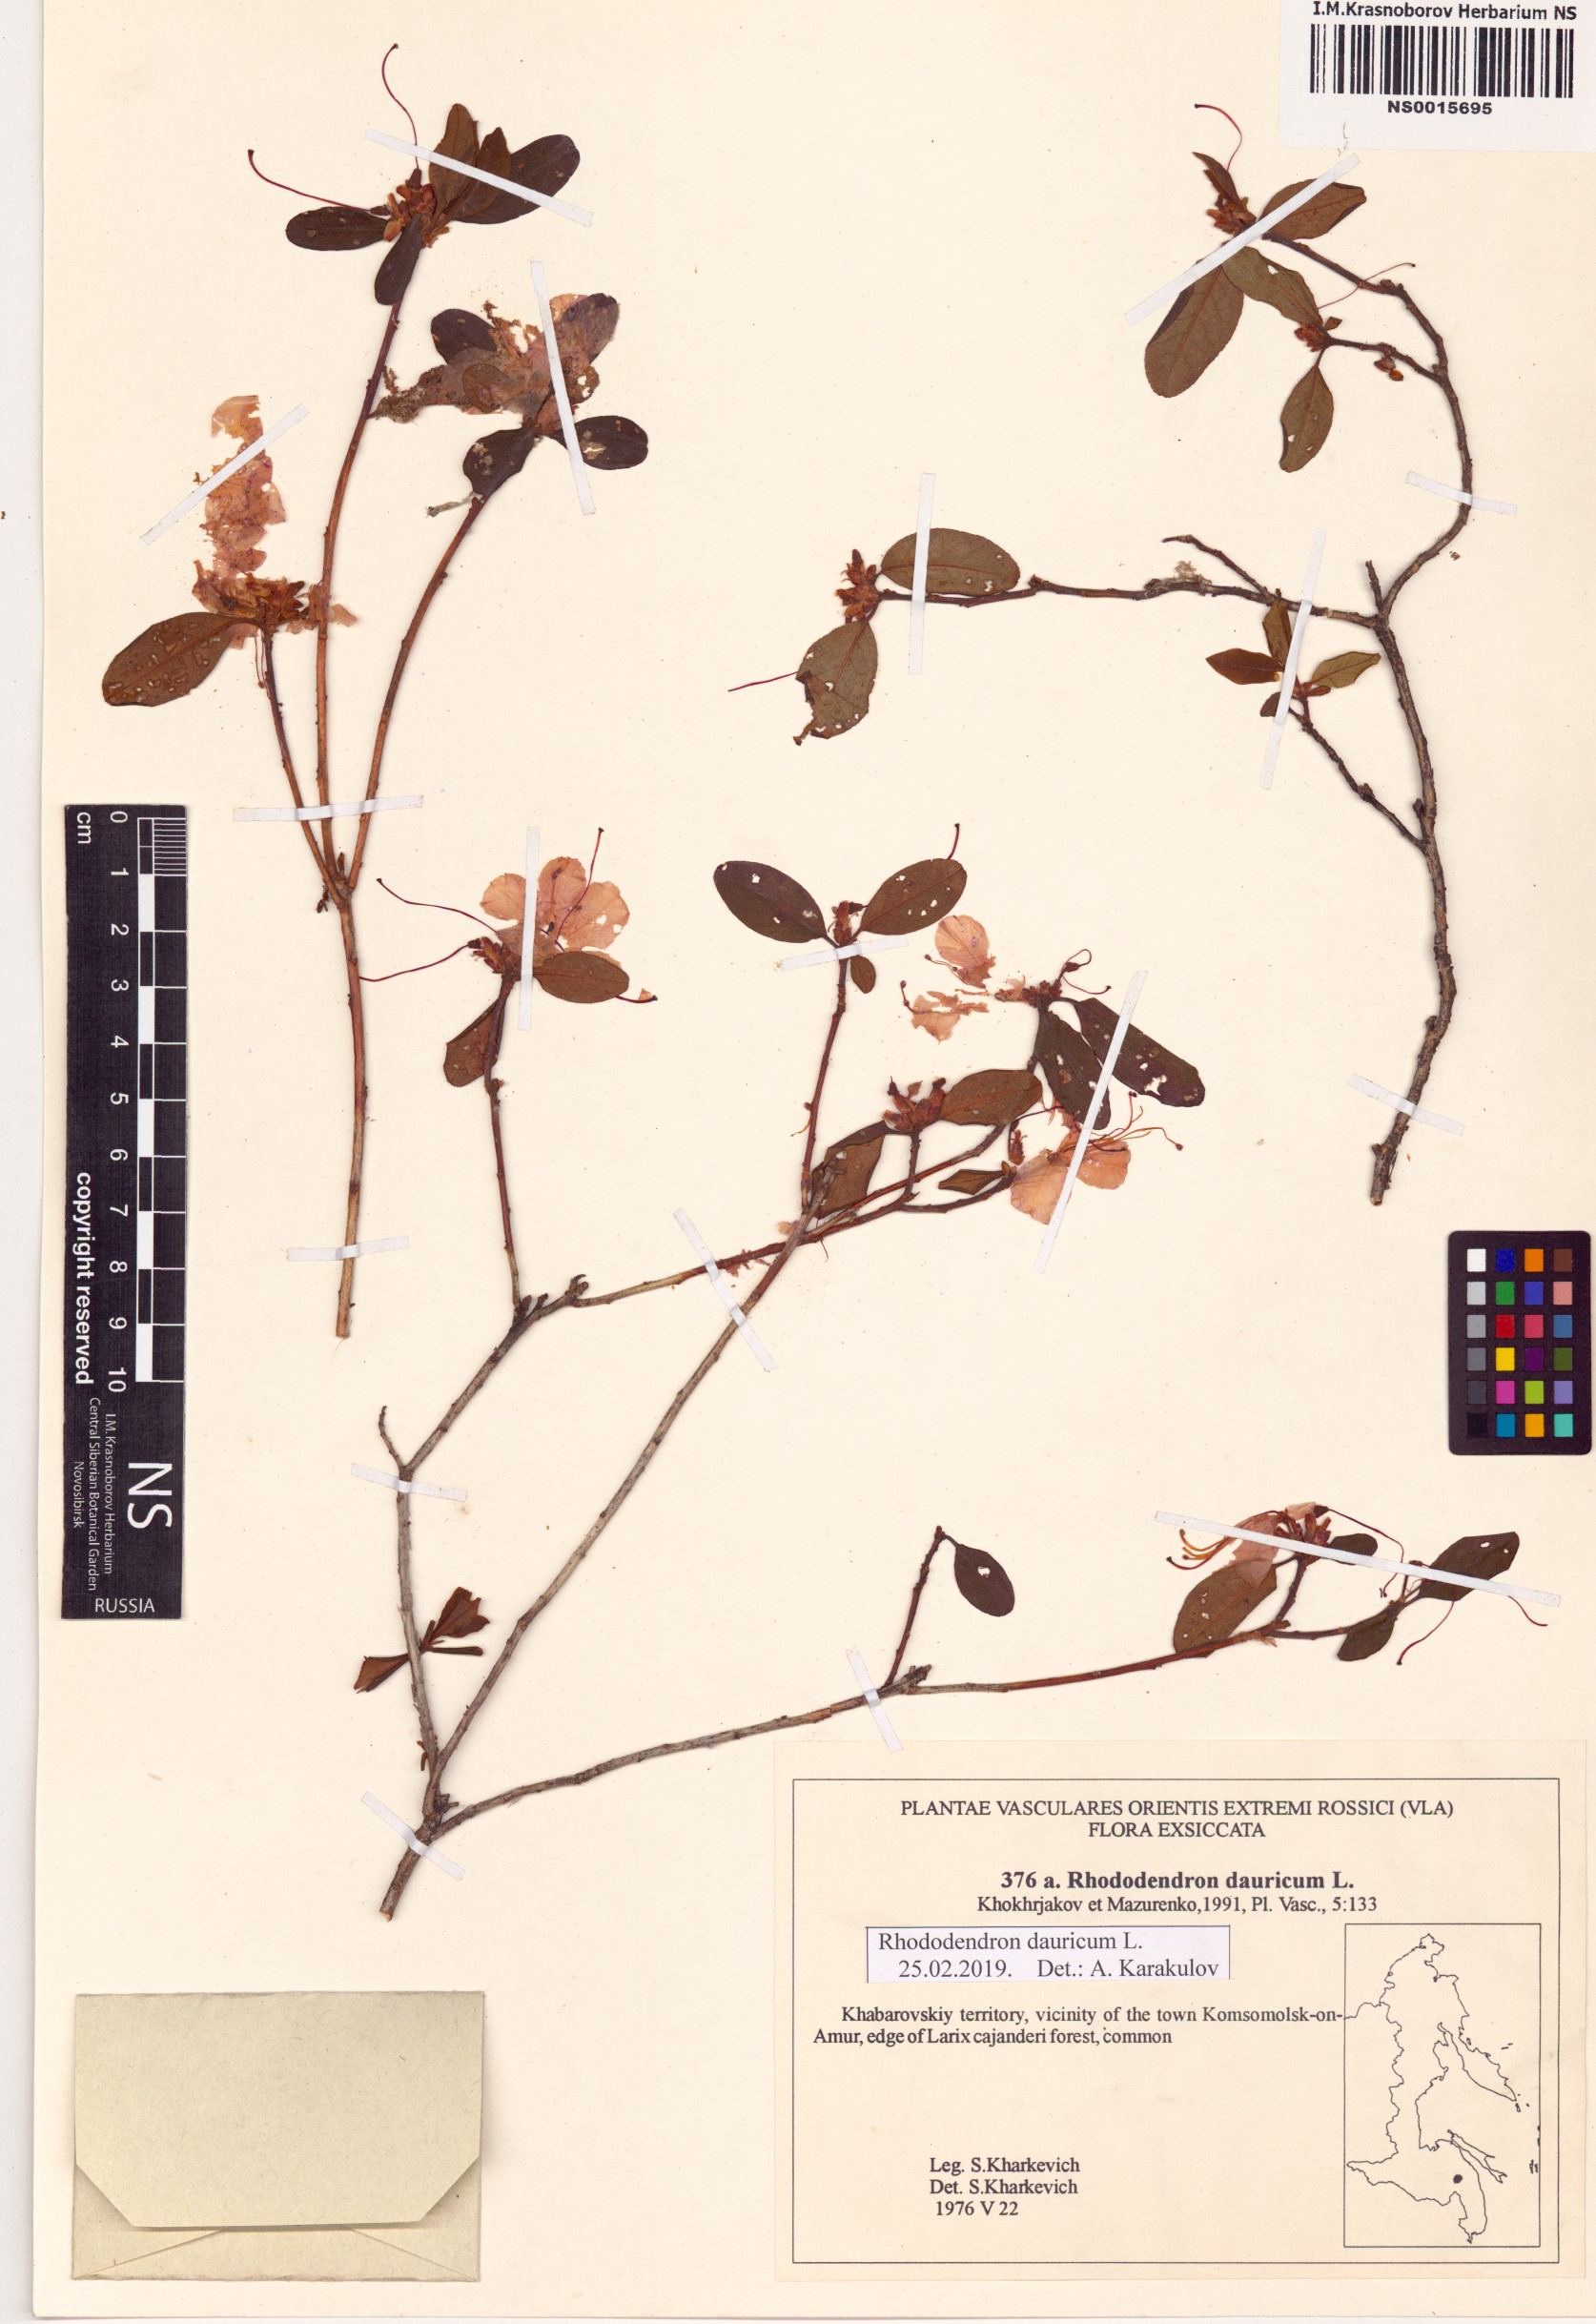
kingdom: Plantae
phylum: Tracheophyta
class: Magnoliopsida
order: Ericales
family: Ericaceae
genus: Rhododendron
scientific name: Rhododendron dauricum
